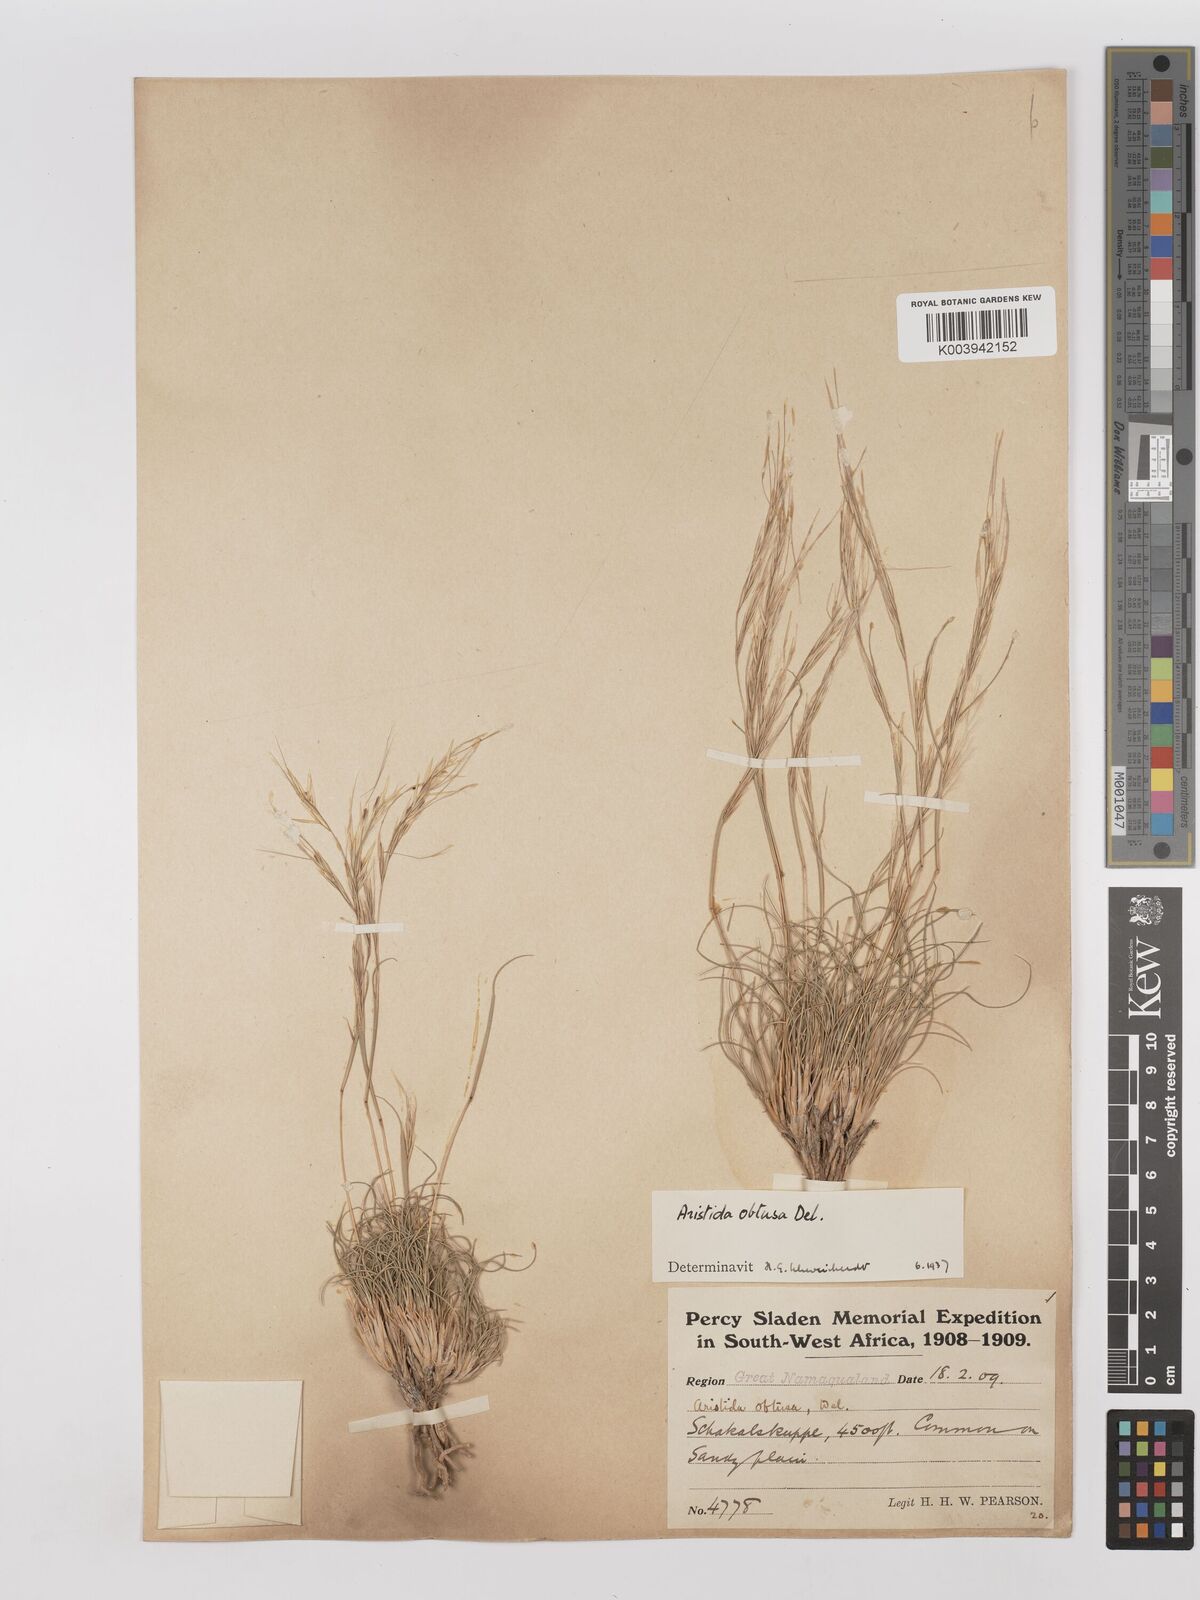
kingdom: Plantae
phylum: Tracheophyta
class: Liliopsida
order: Poales
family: Poaceae
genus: Stipagrostis
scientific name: Stipagrostis obtusa
